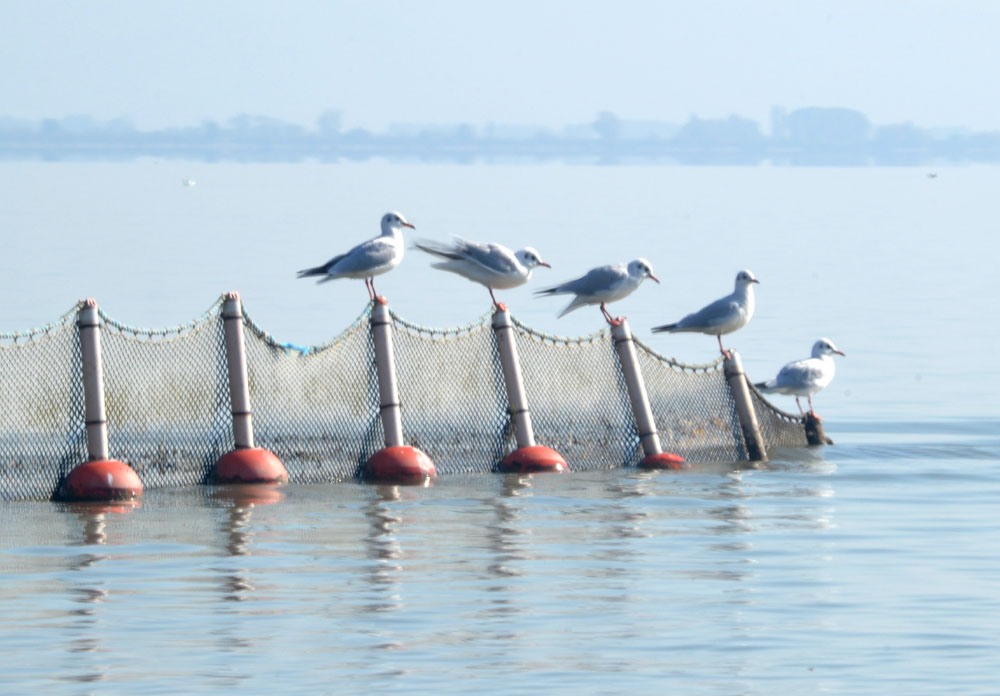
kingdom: Animalia
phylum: Chordata
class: Aves
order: Charadriiformes
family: Laridae
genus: Chroicocephalus
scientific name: Chroicocephalus ridibundus
